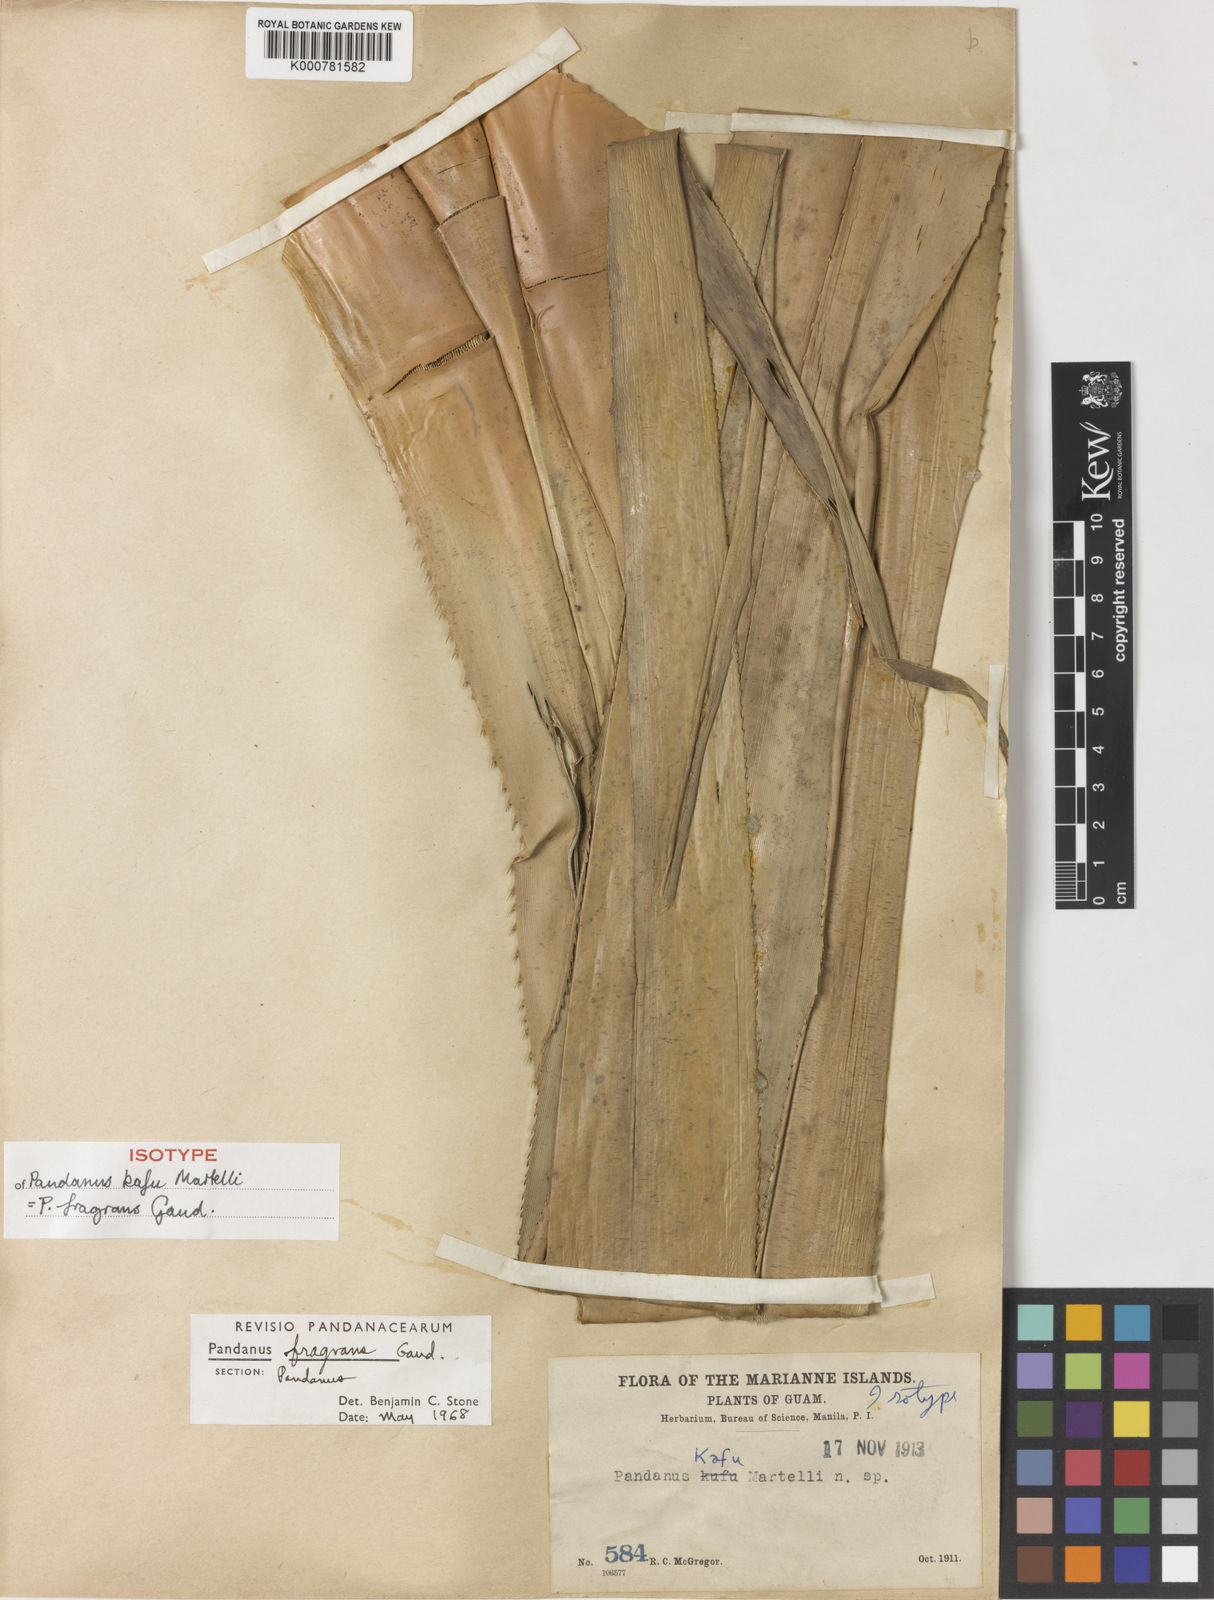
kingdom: Plantae
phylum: Tracheophyta
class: Liliopsida
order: Pandanales
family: Pandanaceae
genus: Pandanus
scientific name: Pandanus tectorius
